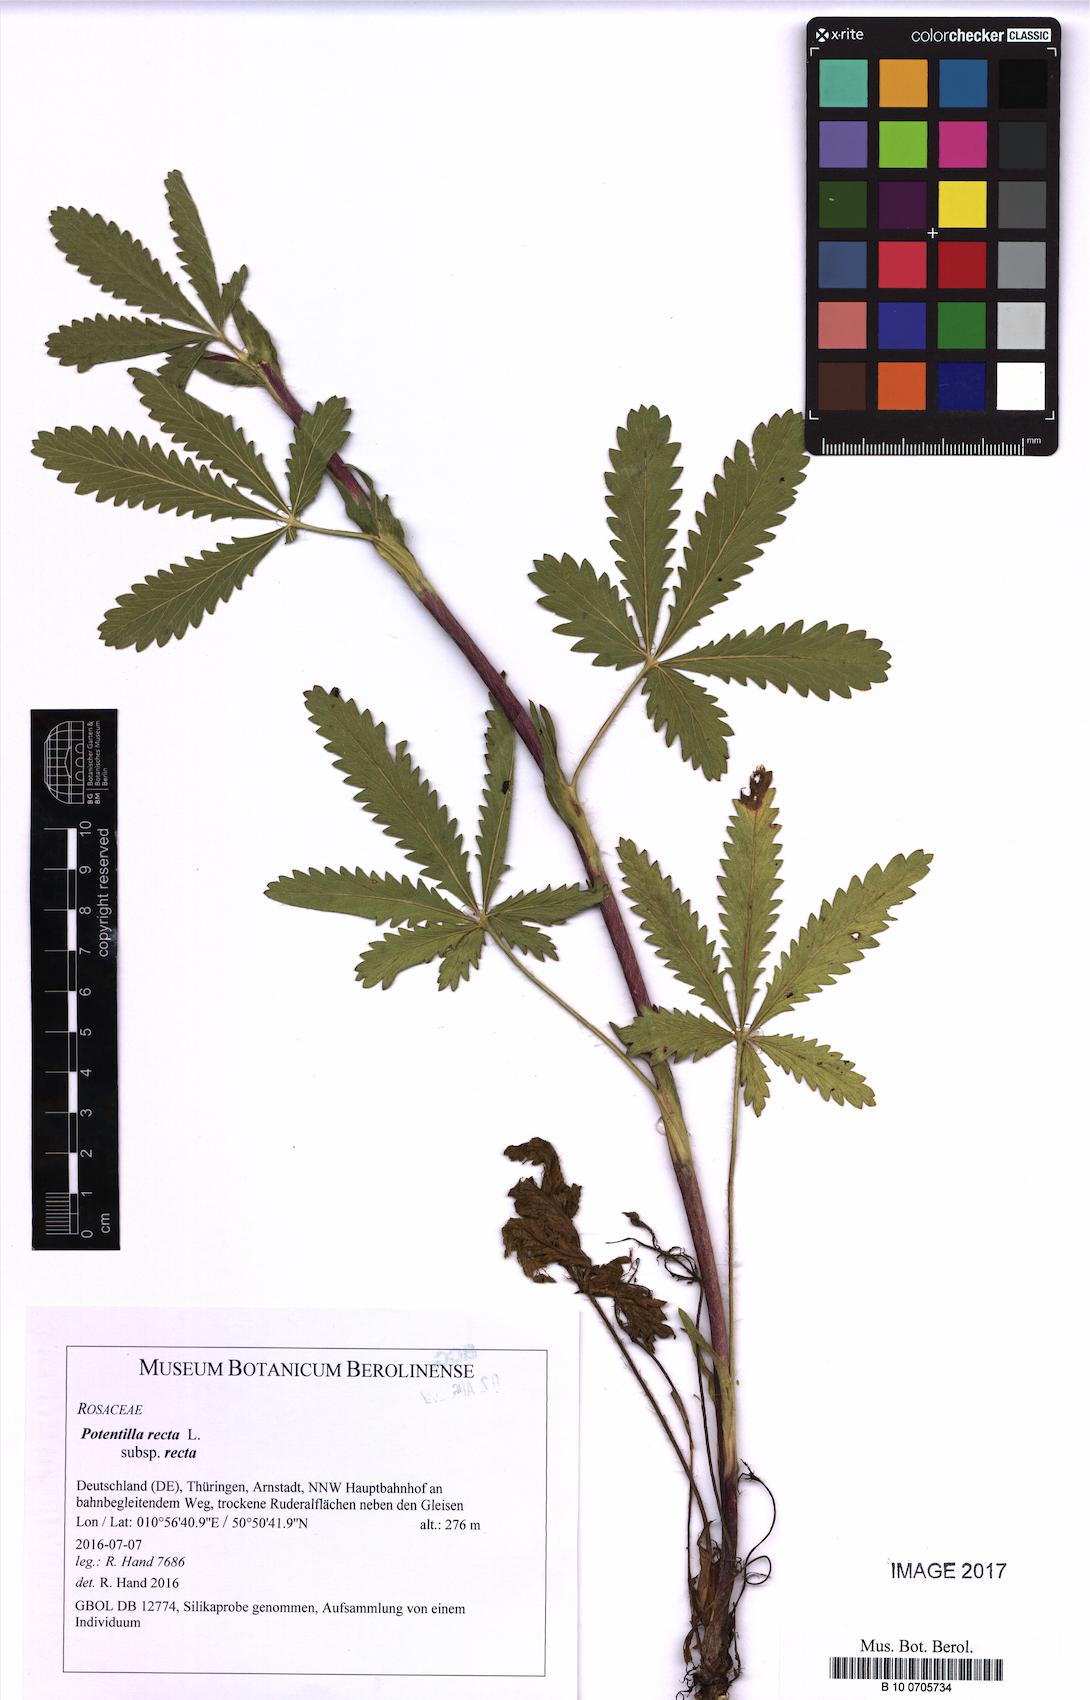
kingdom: Plantae
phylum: Tracheophyta
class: Magnoliopsida
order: Rosales
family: Rosaceae
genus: Potentilla
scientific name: Potentilla recta
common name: Sulphur cinquefoil
